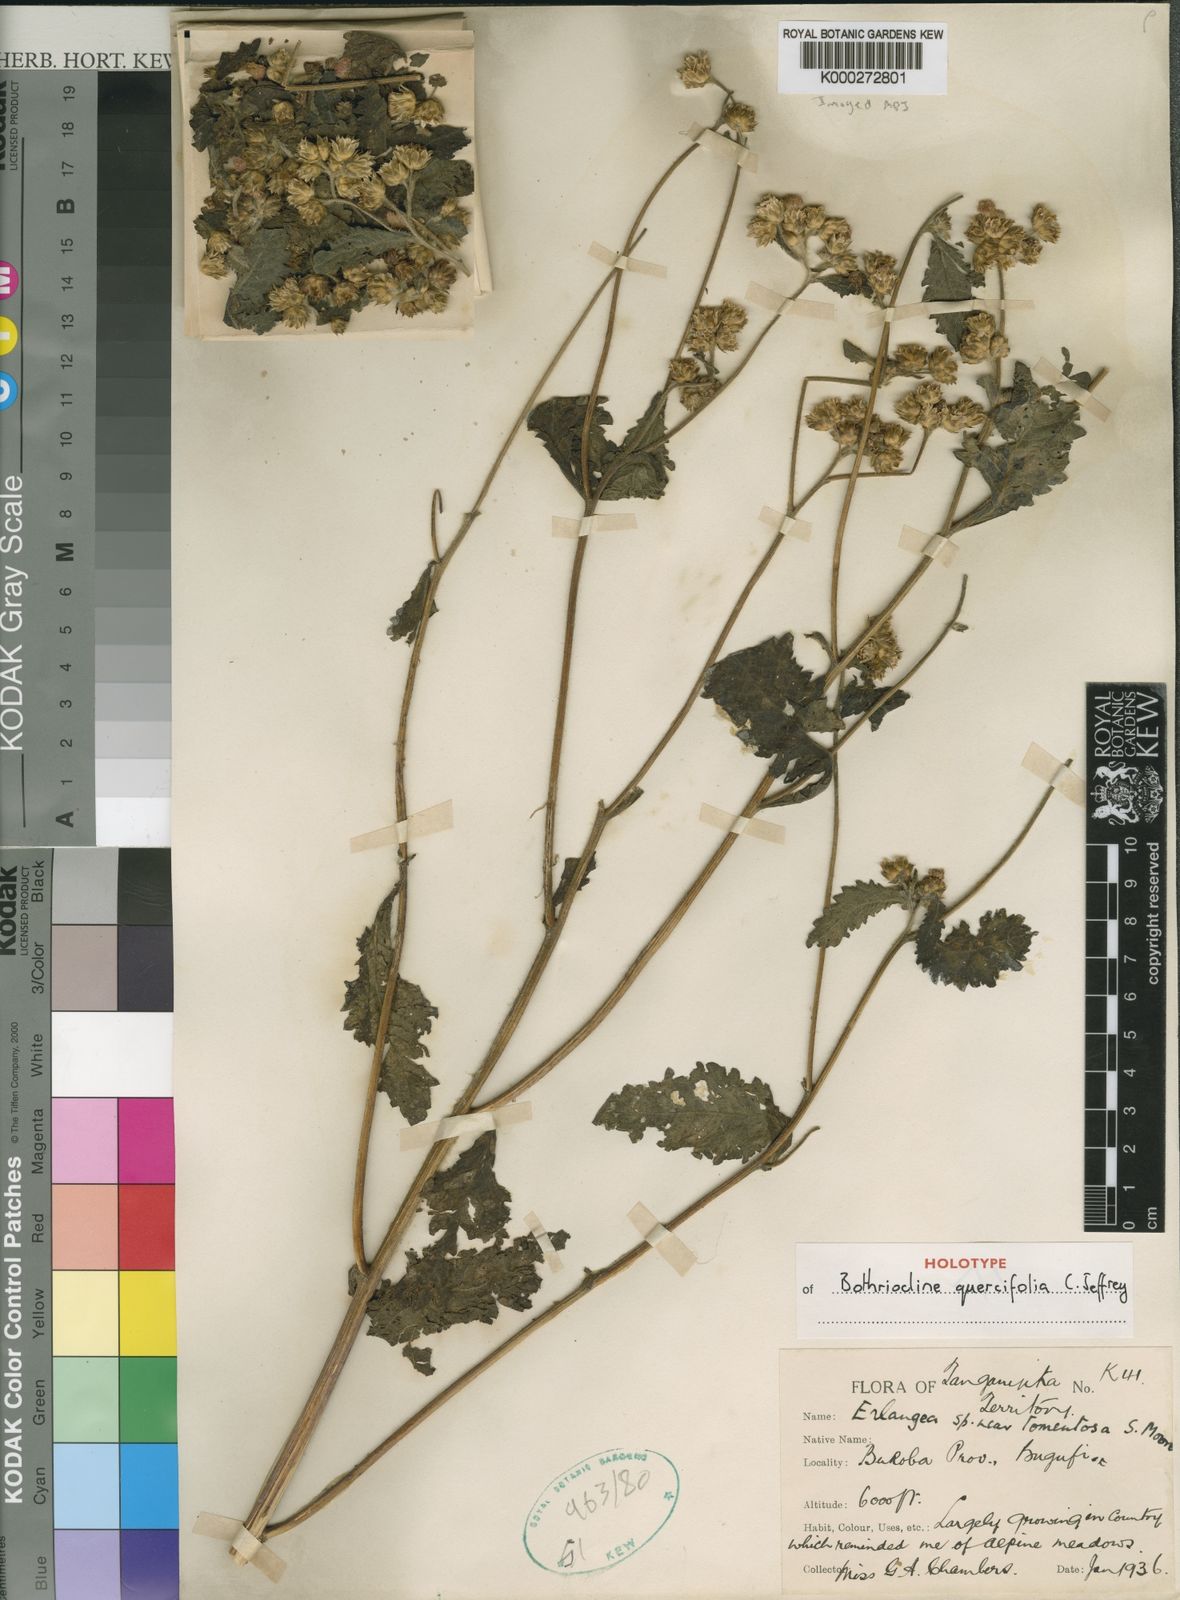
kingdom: Plantae
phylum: Tracheophyta
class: Magnoliopsida
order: Asterales
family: Asteraceae
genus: Bothriocline
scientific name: Bothriocline quercifolia
